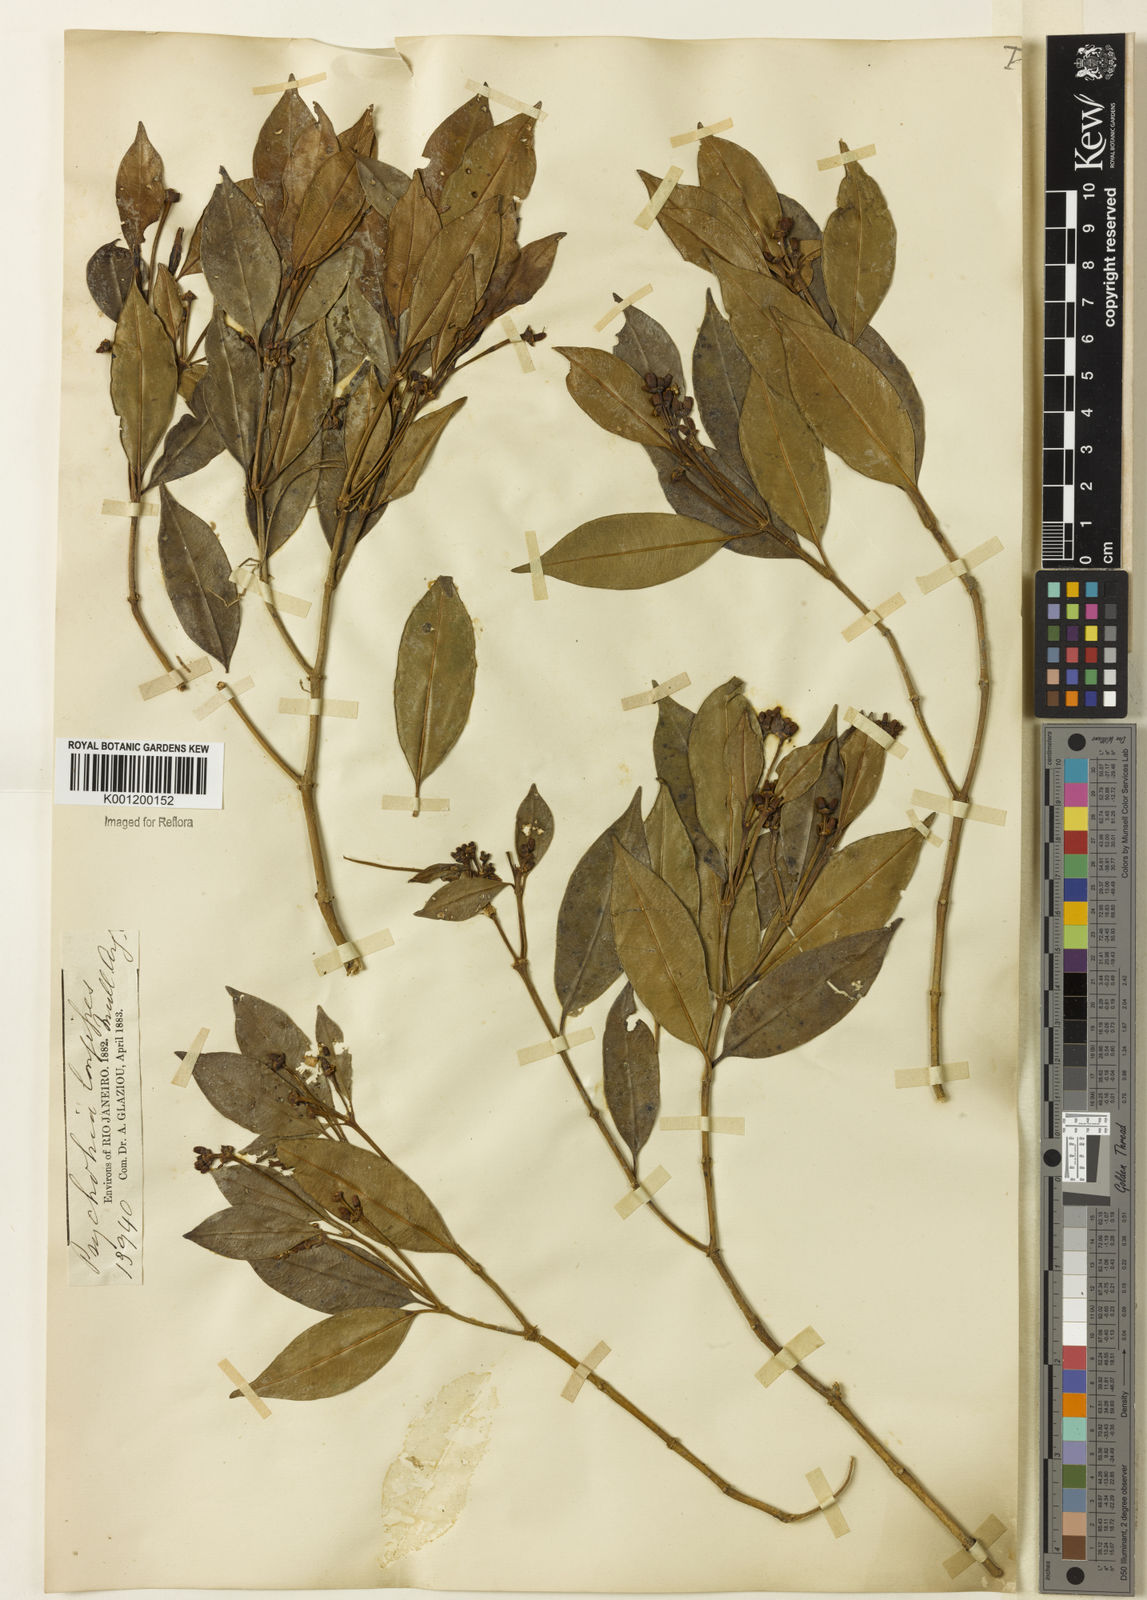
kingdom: Plantae
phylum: Tracheophyta
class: Magnoliopsida
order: Gentianales
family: Rubiaceae
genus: Rudgea
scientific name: Rudgea sessilis
